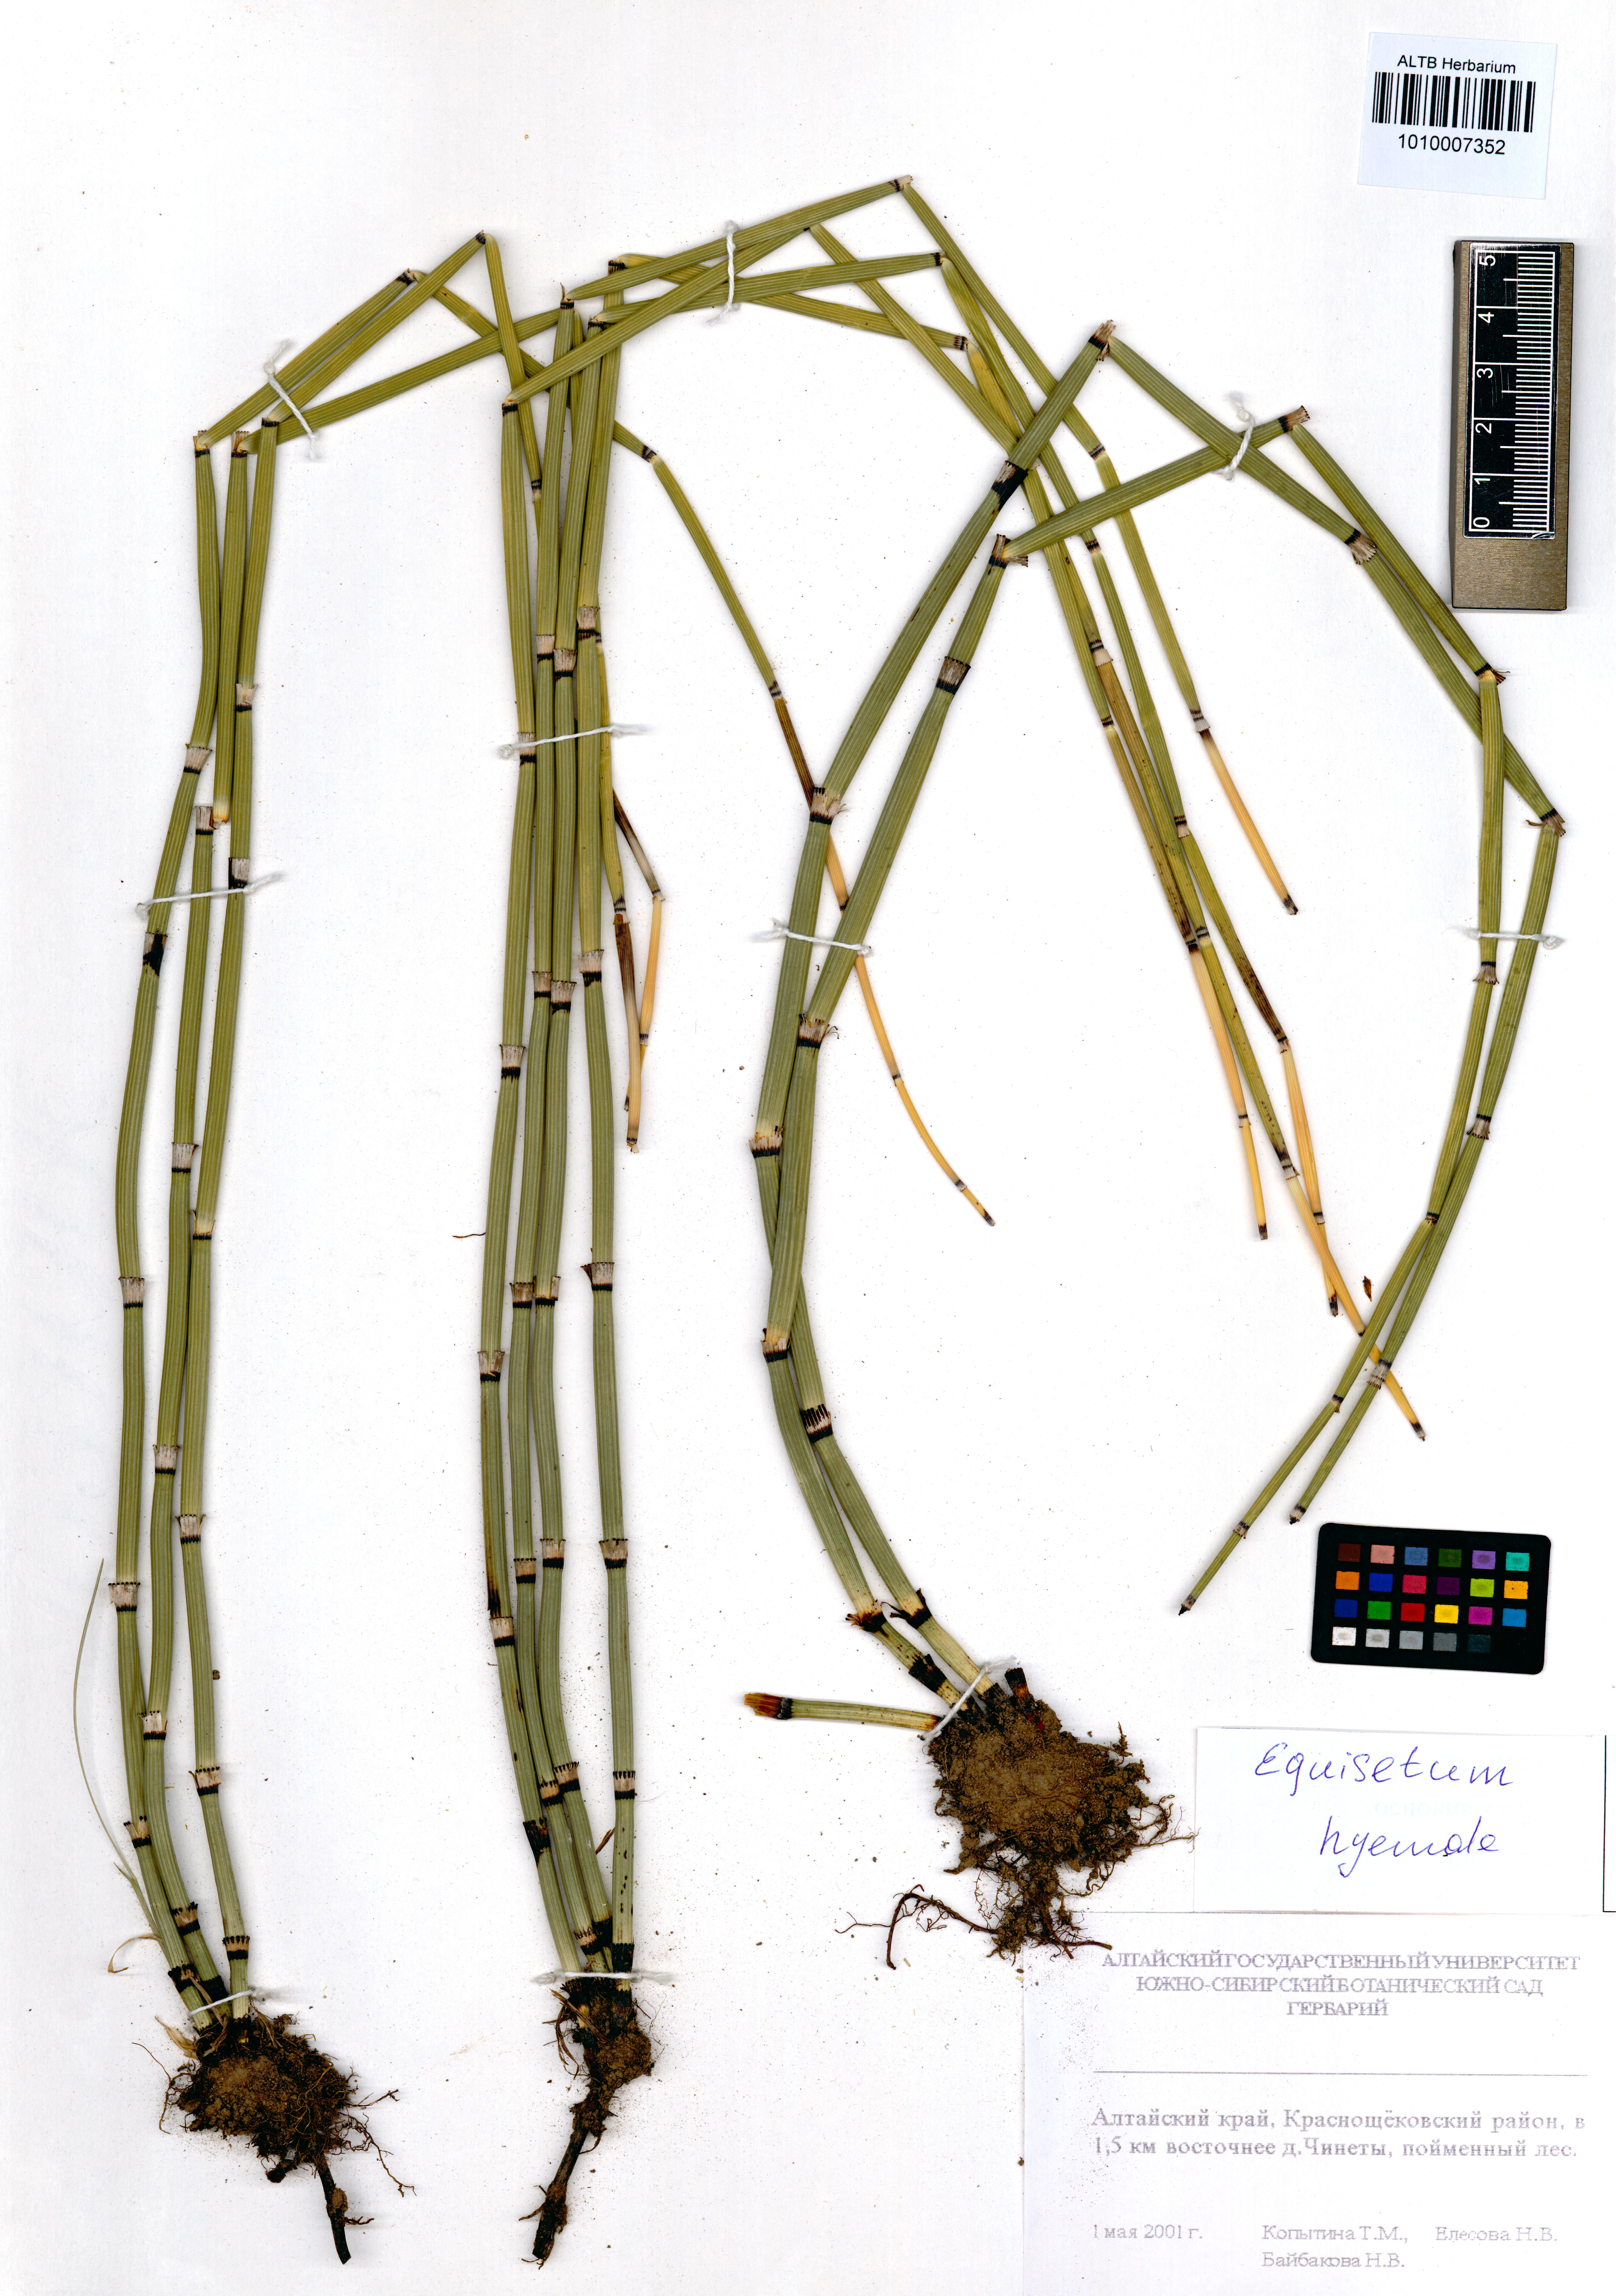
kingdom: Plantae
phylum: Tracheophyta
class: Polypodiopsida
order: Equisetales
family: Equisetaceae
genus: Equisetum
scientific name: Equisetum hyemale
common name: Rough horsetail
